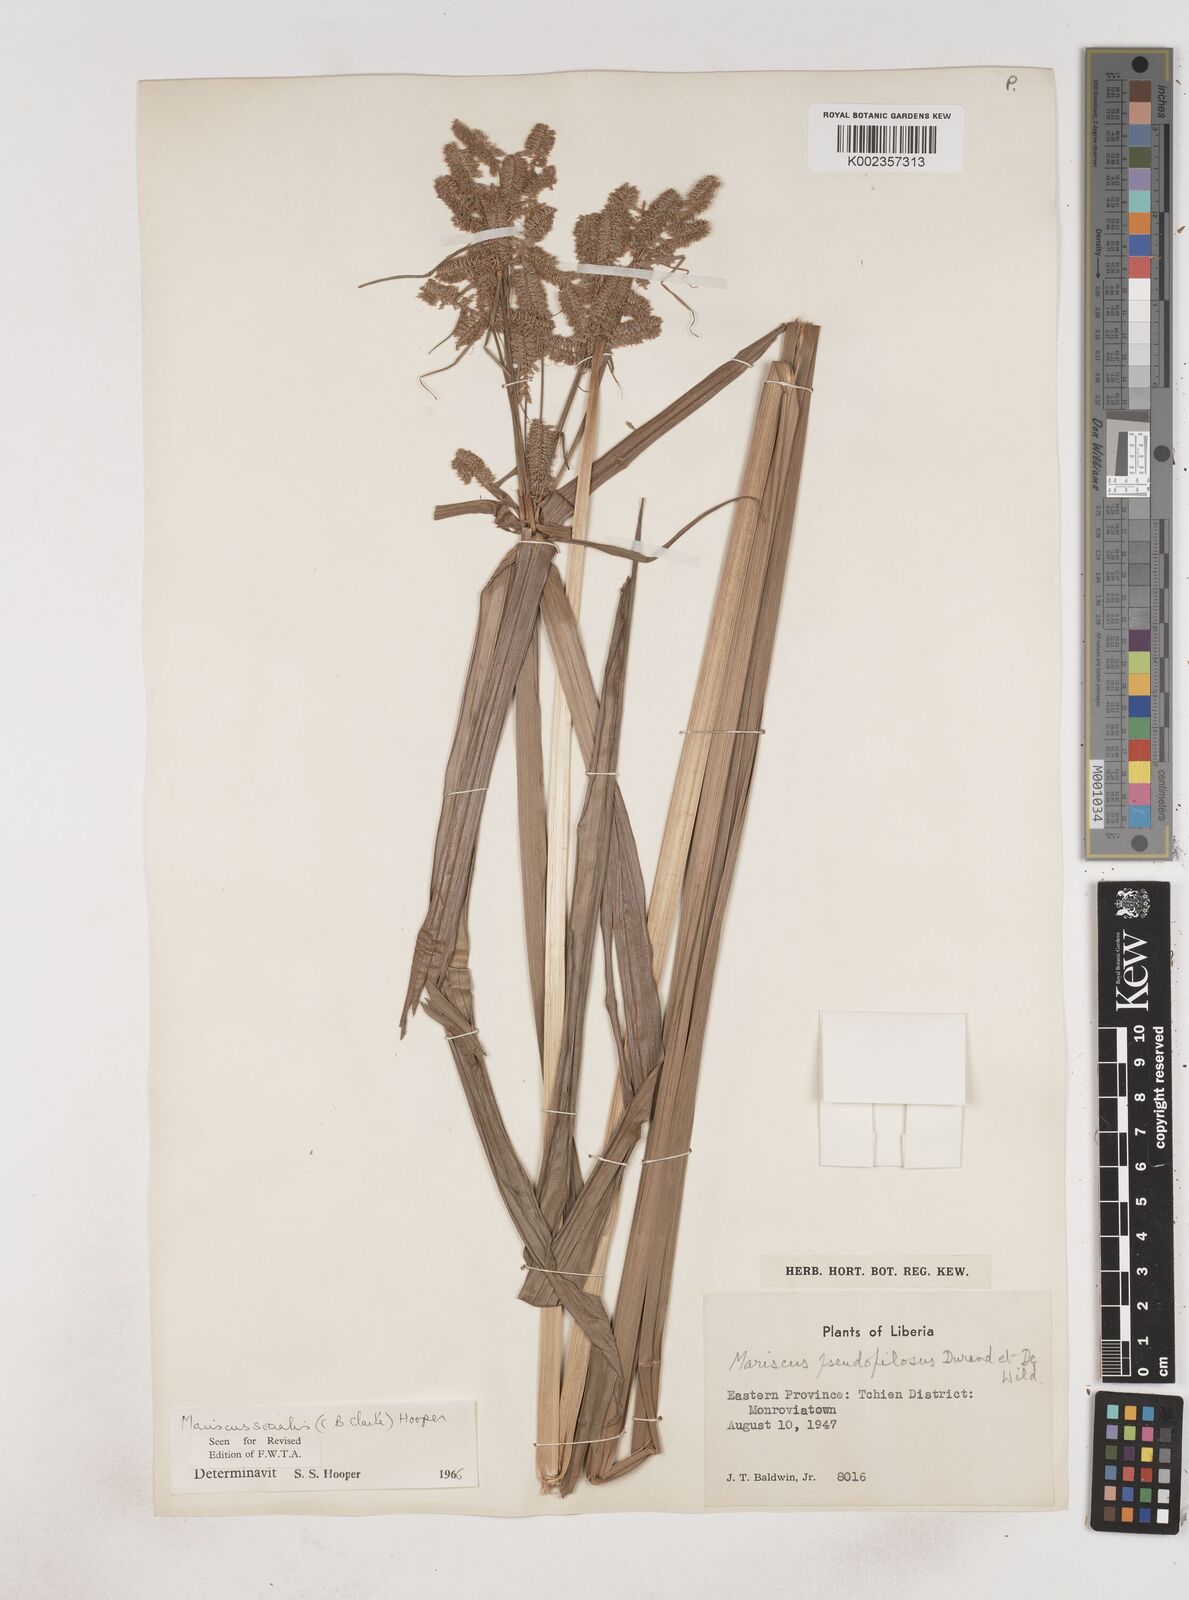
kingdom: Plantae
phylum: Tracheophyta
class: Liliopsida
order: Poales
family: Cyperaceae
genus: Cyperus
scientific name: Cyperus pseudopilosus
